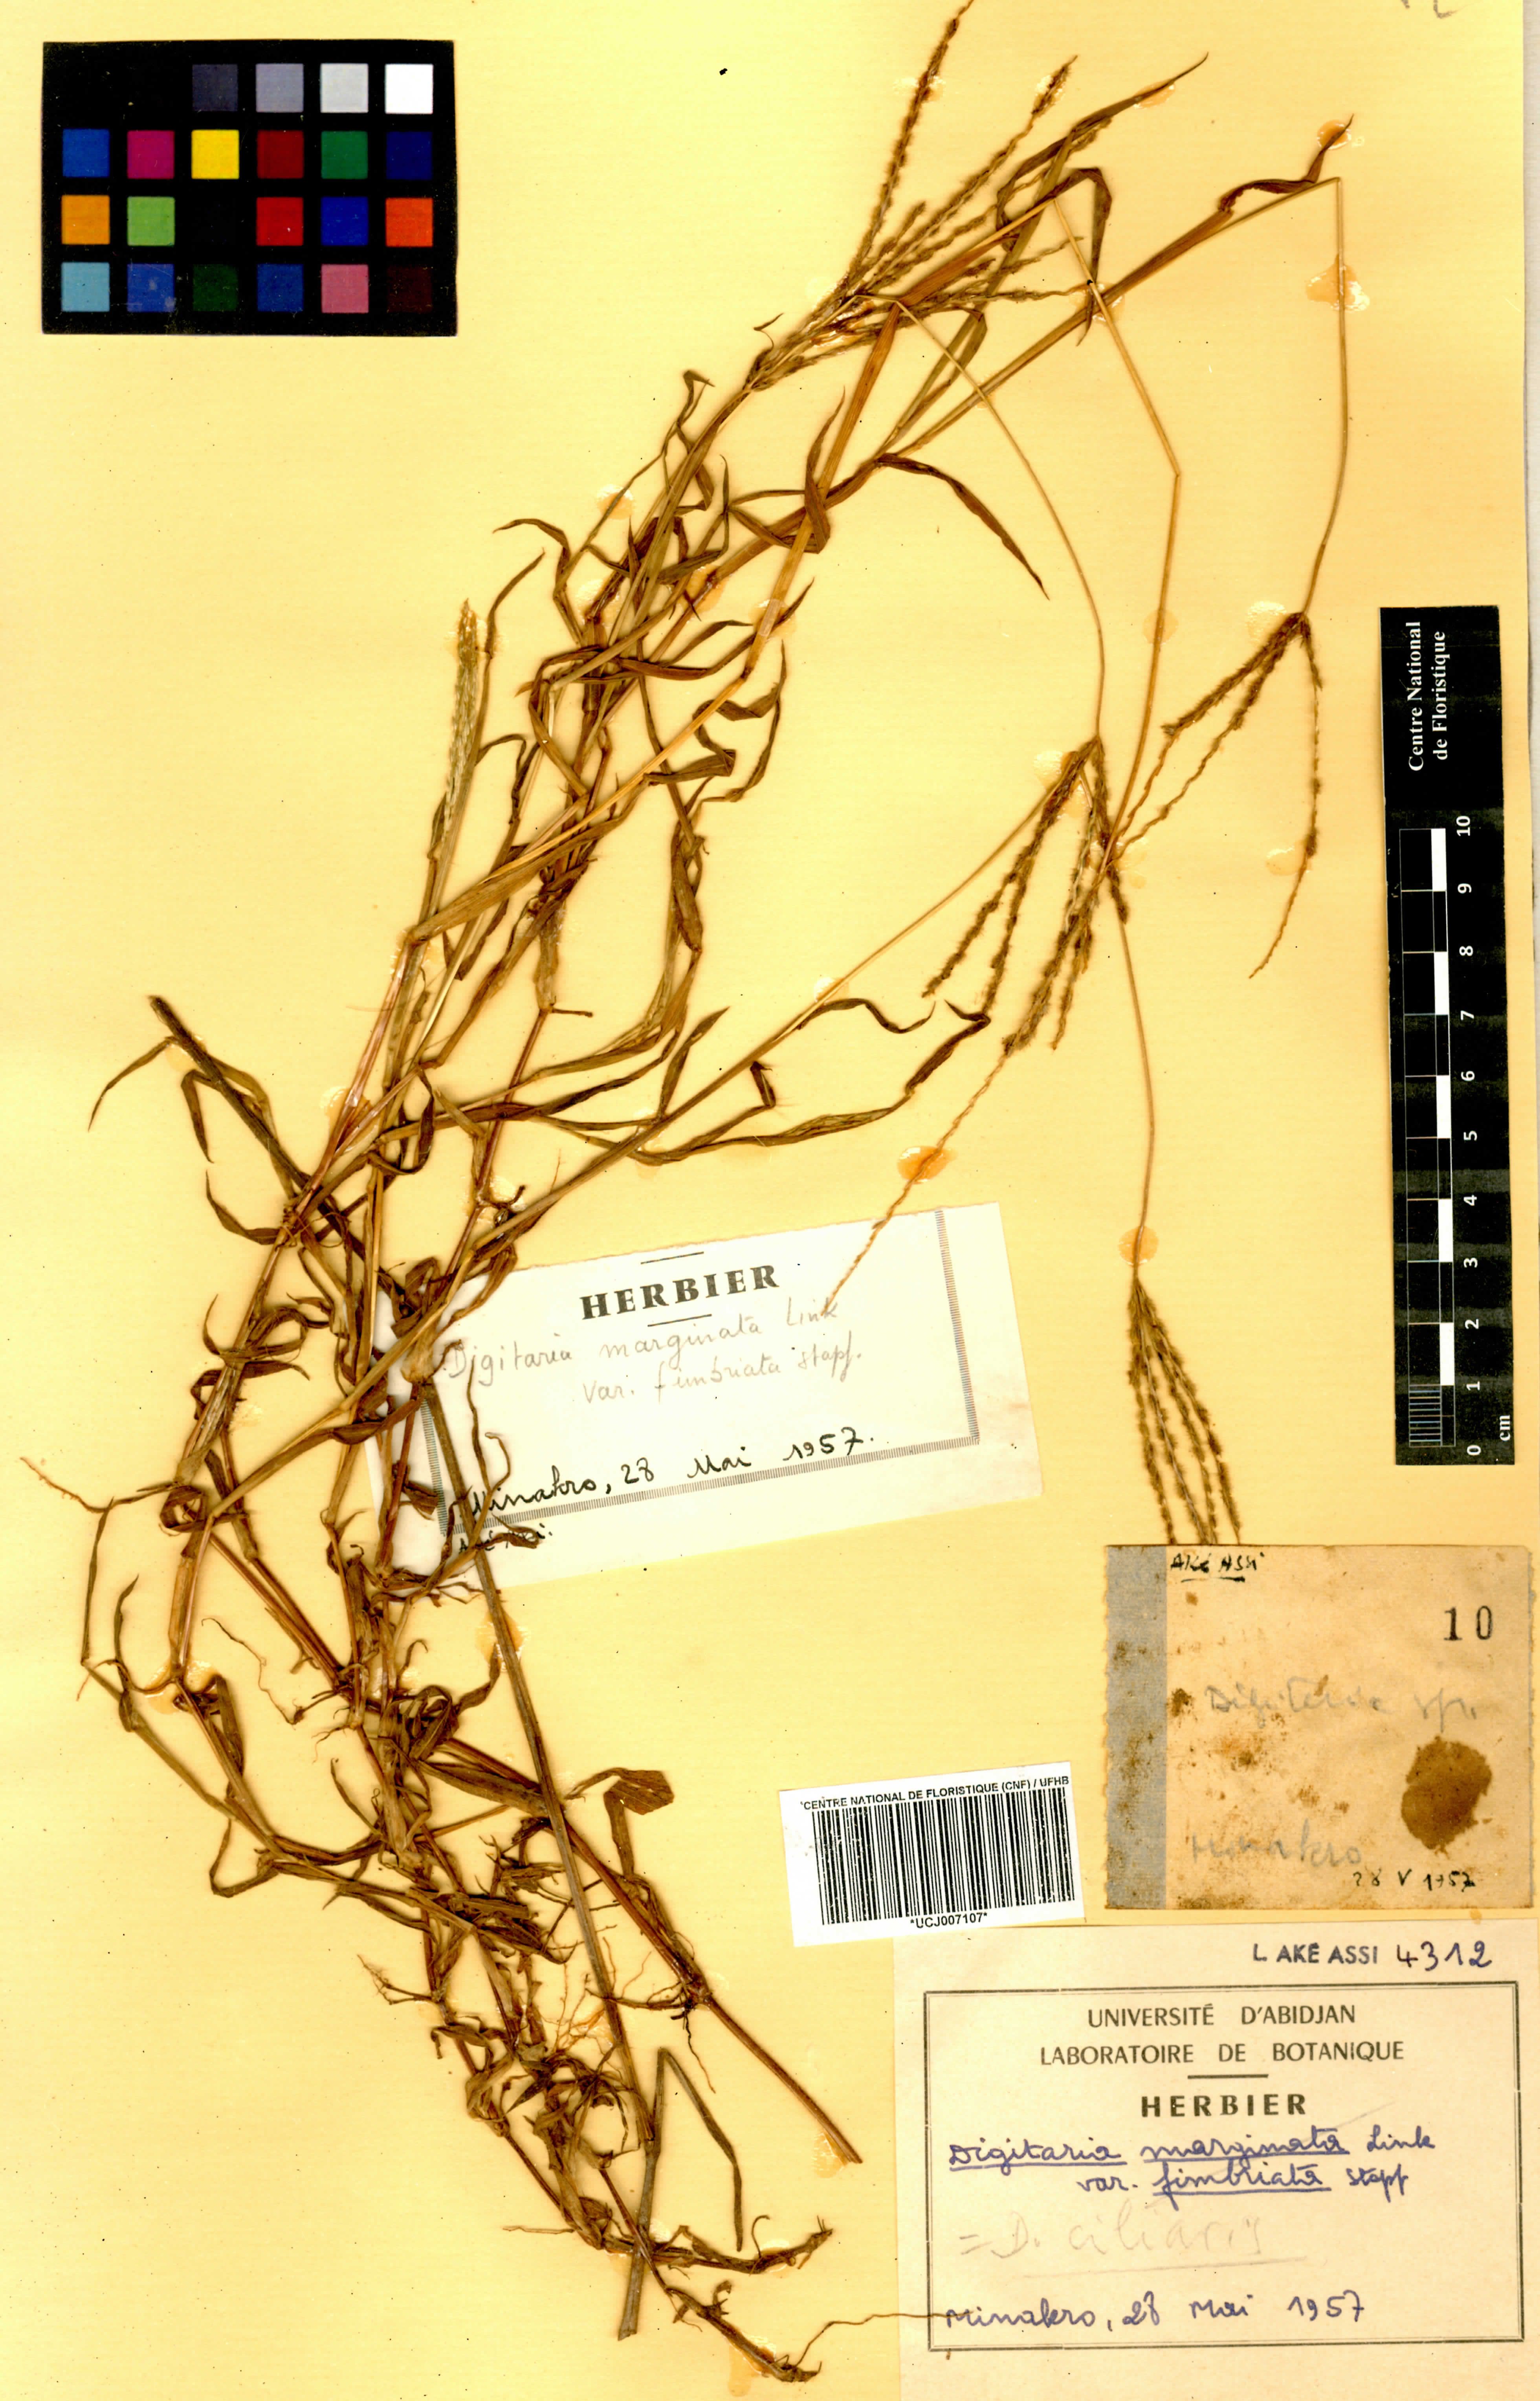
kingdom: Plantae
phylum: Tracheophyta
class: Liliopsida
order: Poales
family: Poaceae
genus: Digitaria
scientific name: Digitaria abyssinica
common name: African couchgrass
